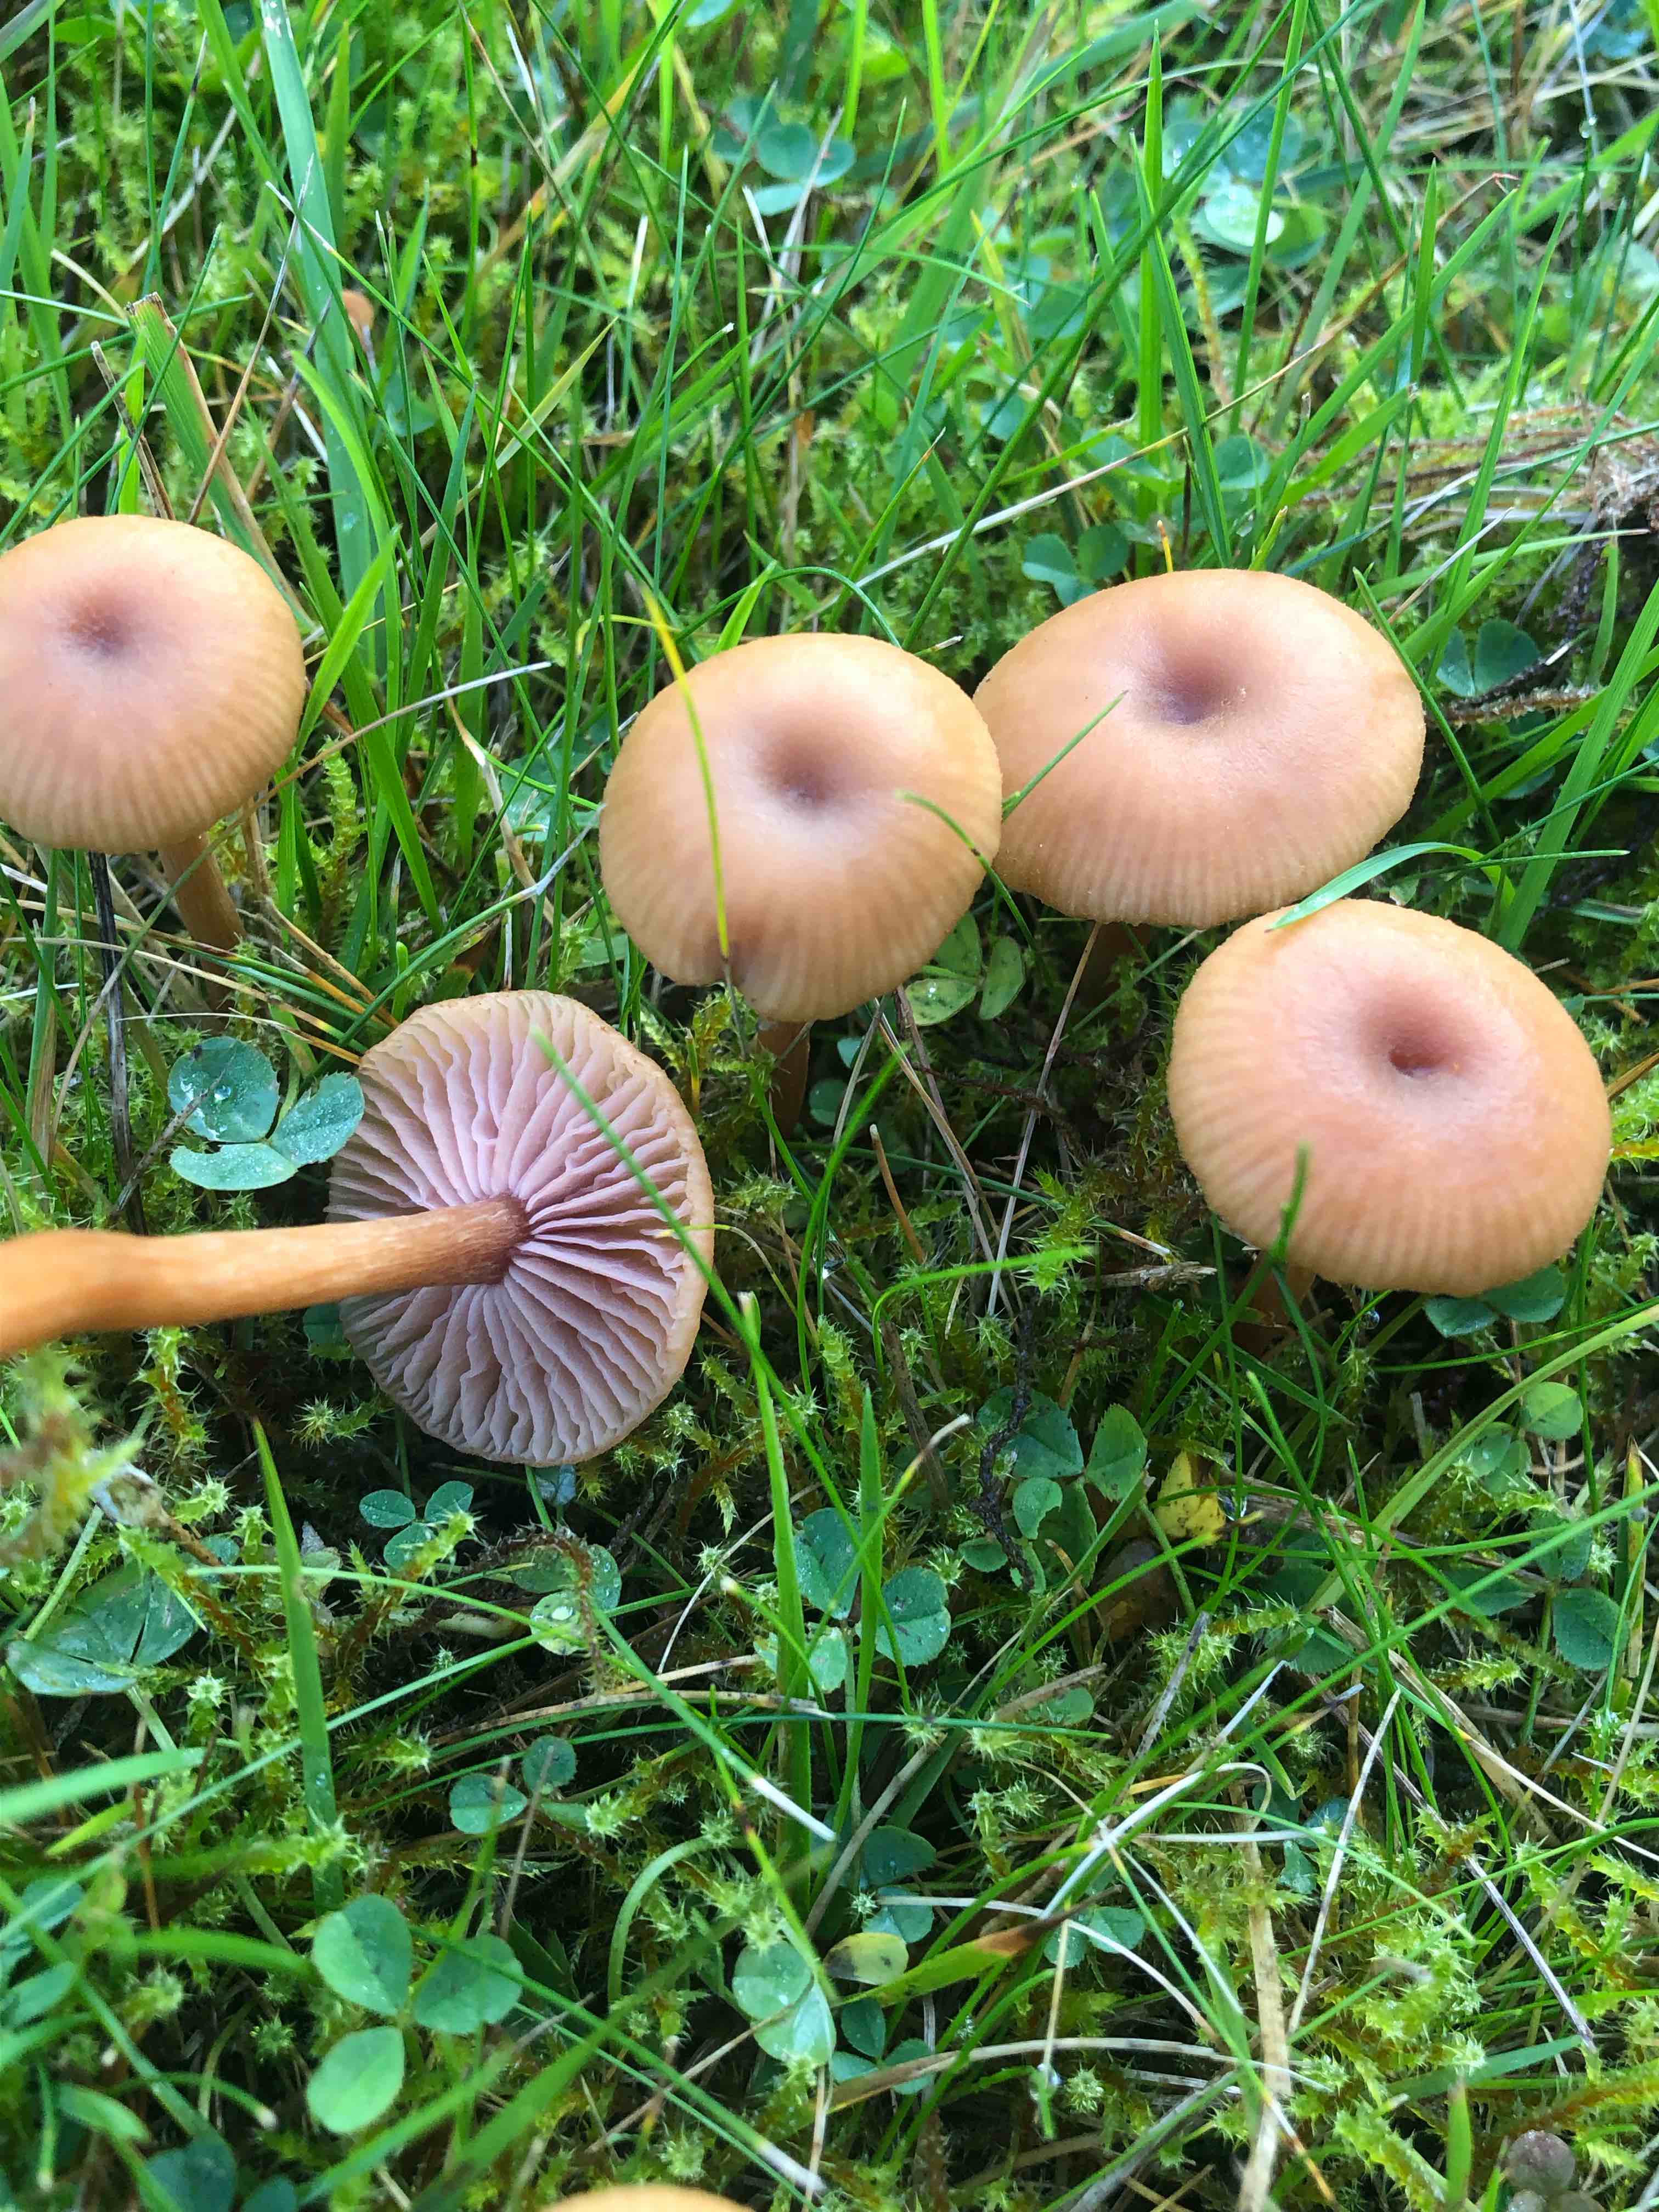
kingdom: Fungi
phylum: Basidiomycota
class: Agaricomycetes
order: Agaricales
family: Hydnangiaceae
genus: Laccaria
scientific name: Laccaria
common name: ametysthat
